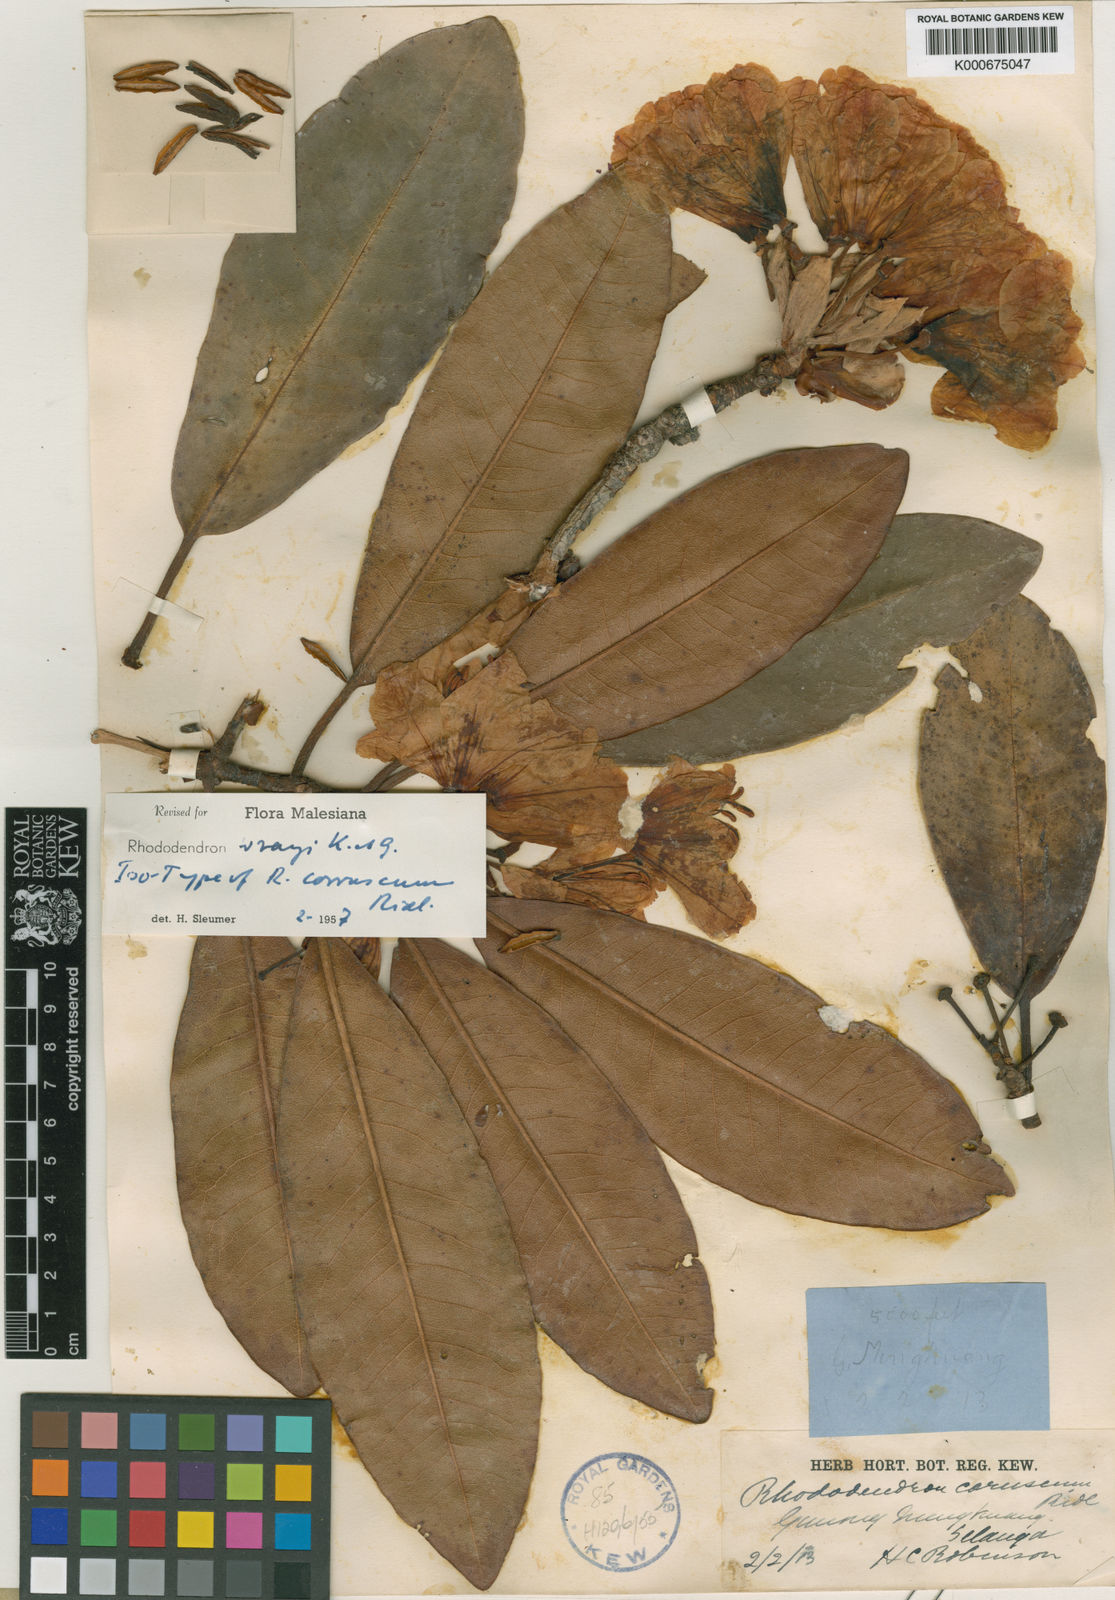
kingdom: Plantae
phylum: Tracheophyta
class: Magnoliopsida
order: Ericales
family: Ericaceae
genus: Rhododendron
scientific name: Rhododendron wrayi
